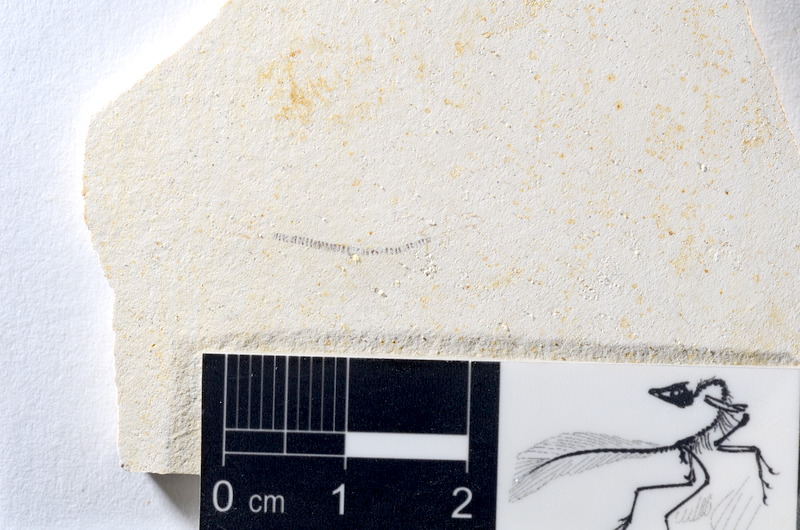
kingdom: Animalia
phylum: Chordata
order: Salmoniformes
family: Orthogonikleithridae
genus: Orthogonikleithrus
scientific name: Orthogonikleithrus hoelli
